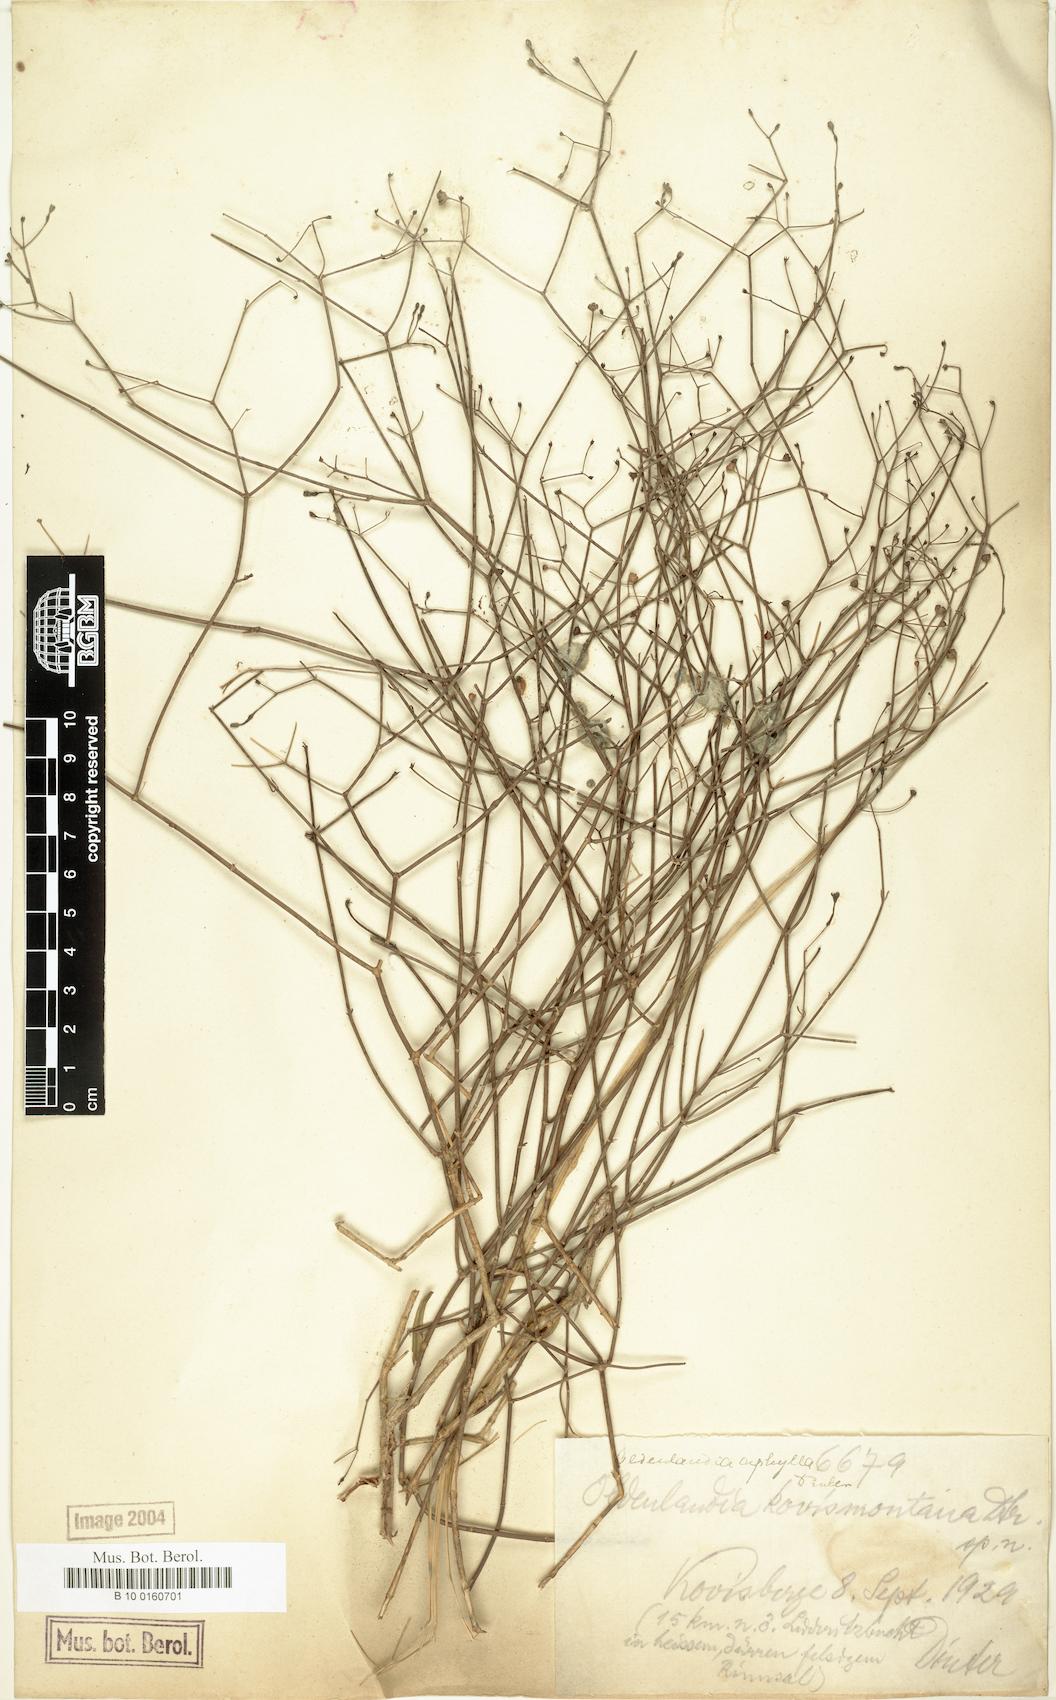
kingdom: Plantae
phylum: Tracheophyta
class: Magnoliopsida
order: Gentianales
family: Rubiaceae
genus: Oldenlandia
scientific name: Oldenlandia
